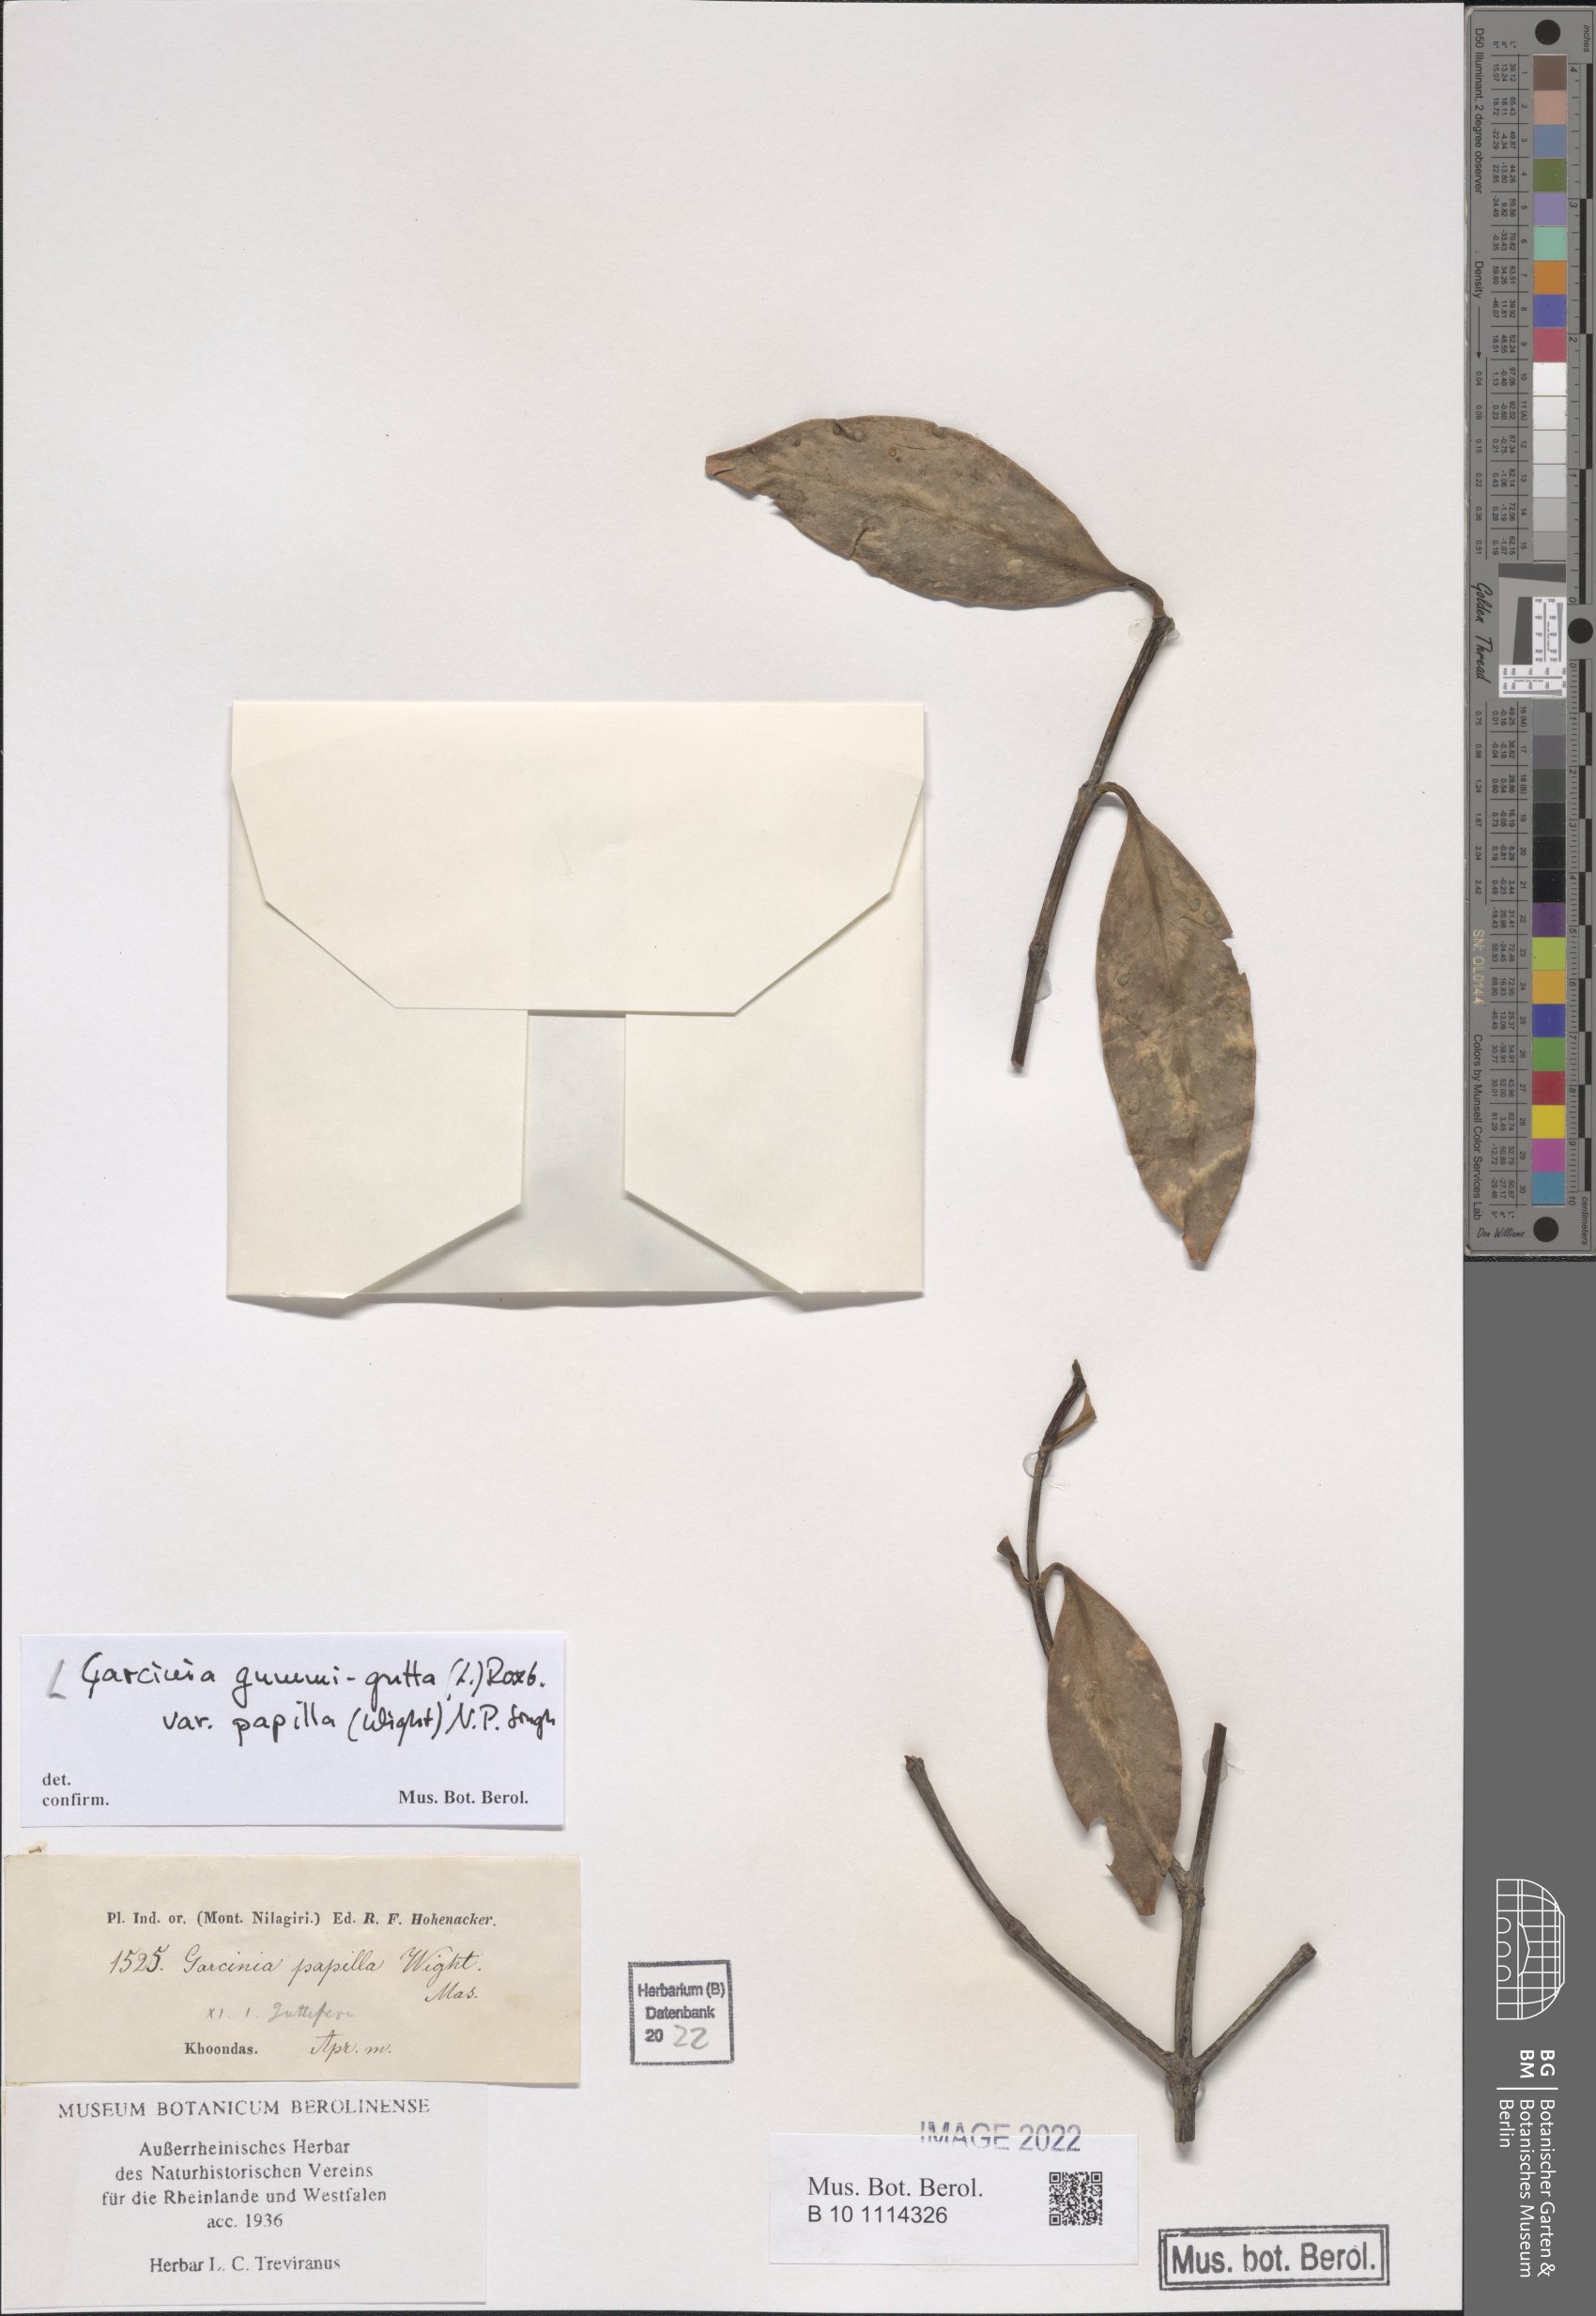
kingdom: Plantae
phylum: Tracheophyta
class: Magnoliopsida
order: Malpighiales
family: Clusiaceae
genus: Garcinia
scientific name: Garcinia gummi-gutta
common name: Malabar tamarind
